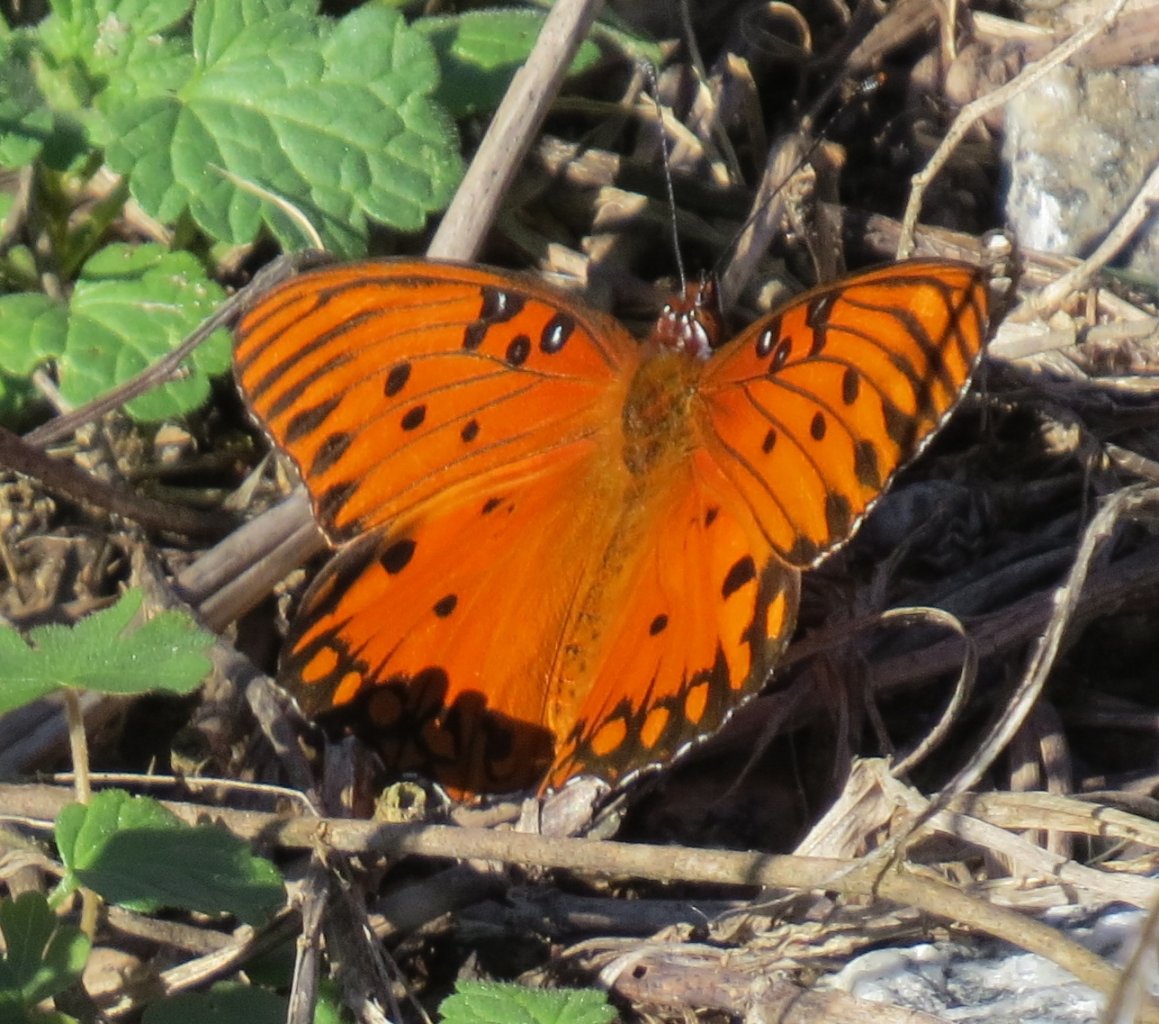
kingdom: Animalia
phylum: Arthropoda
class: Insecta
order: Lepidoptera
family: Nymphalidae
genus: Dione
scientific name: Dione vanillae
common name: Gulf Fritillary
